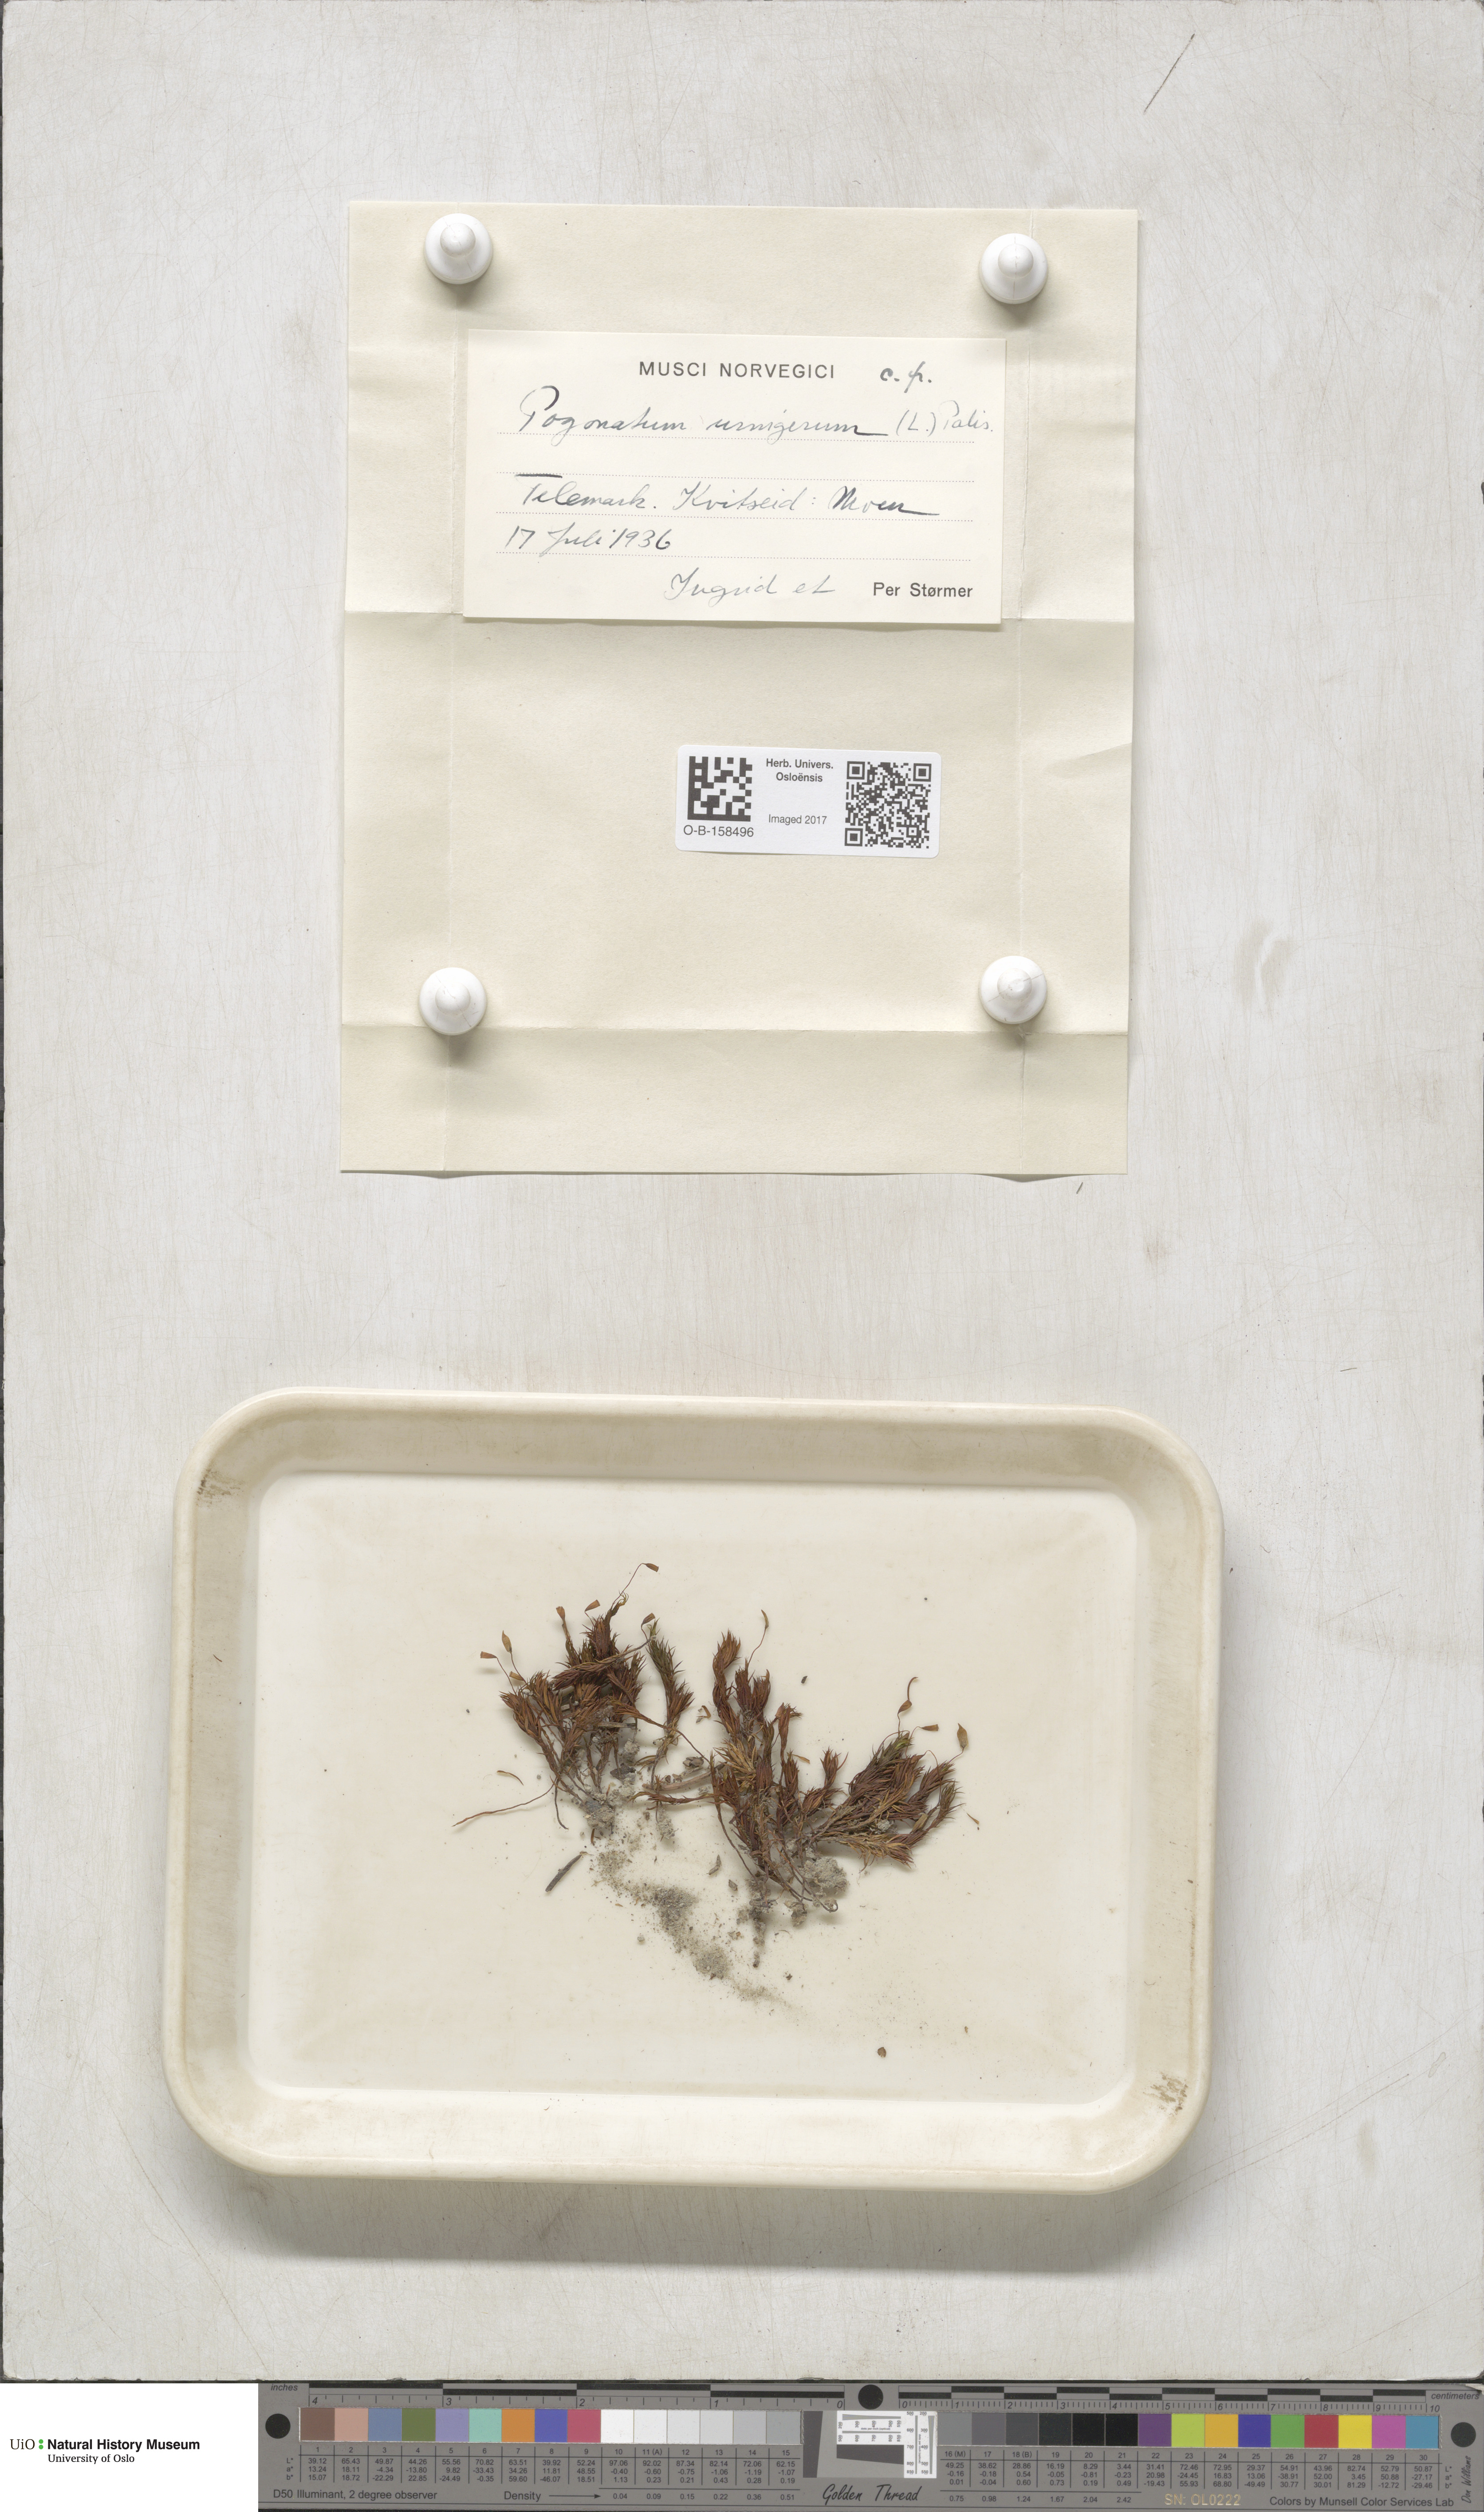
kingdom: Plantae
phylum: Bryophyta
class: Polytrichopsida
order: Polytrichales
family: Polytrichaceae
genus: Pogonatum
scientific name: Pogonatum urnigerum
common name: Urn hair moss
